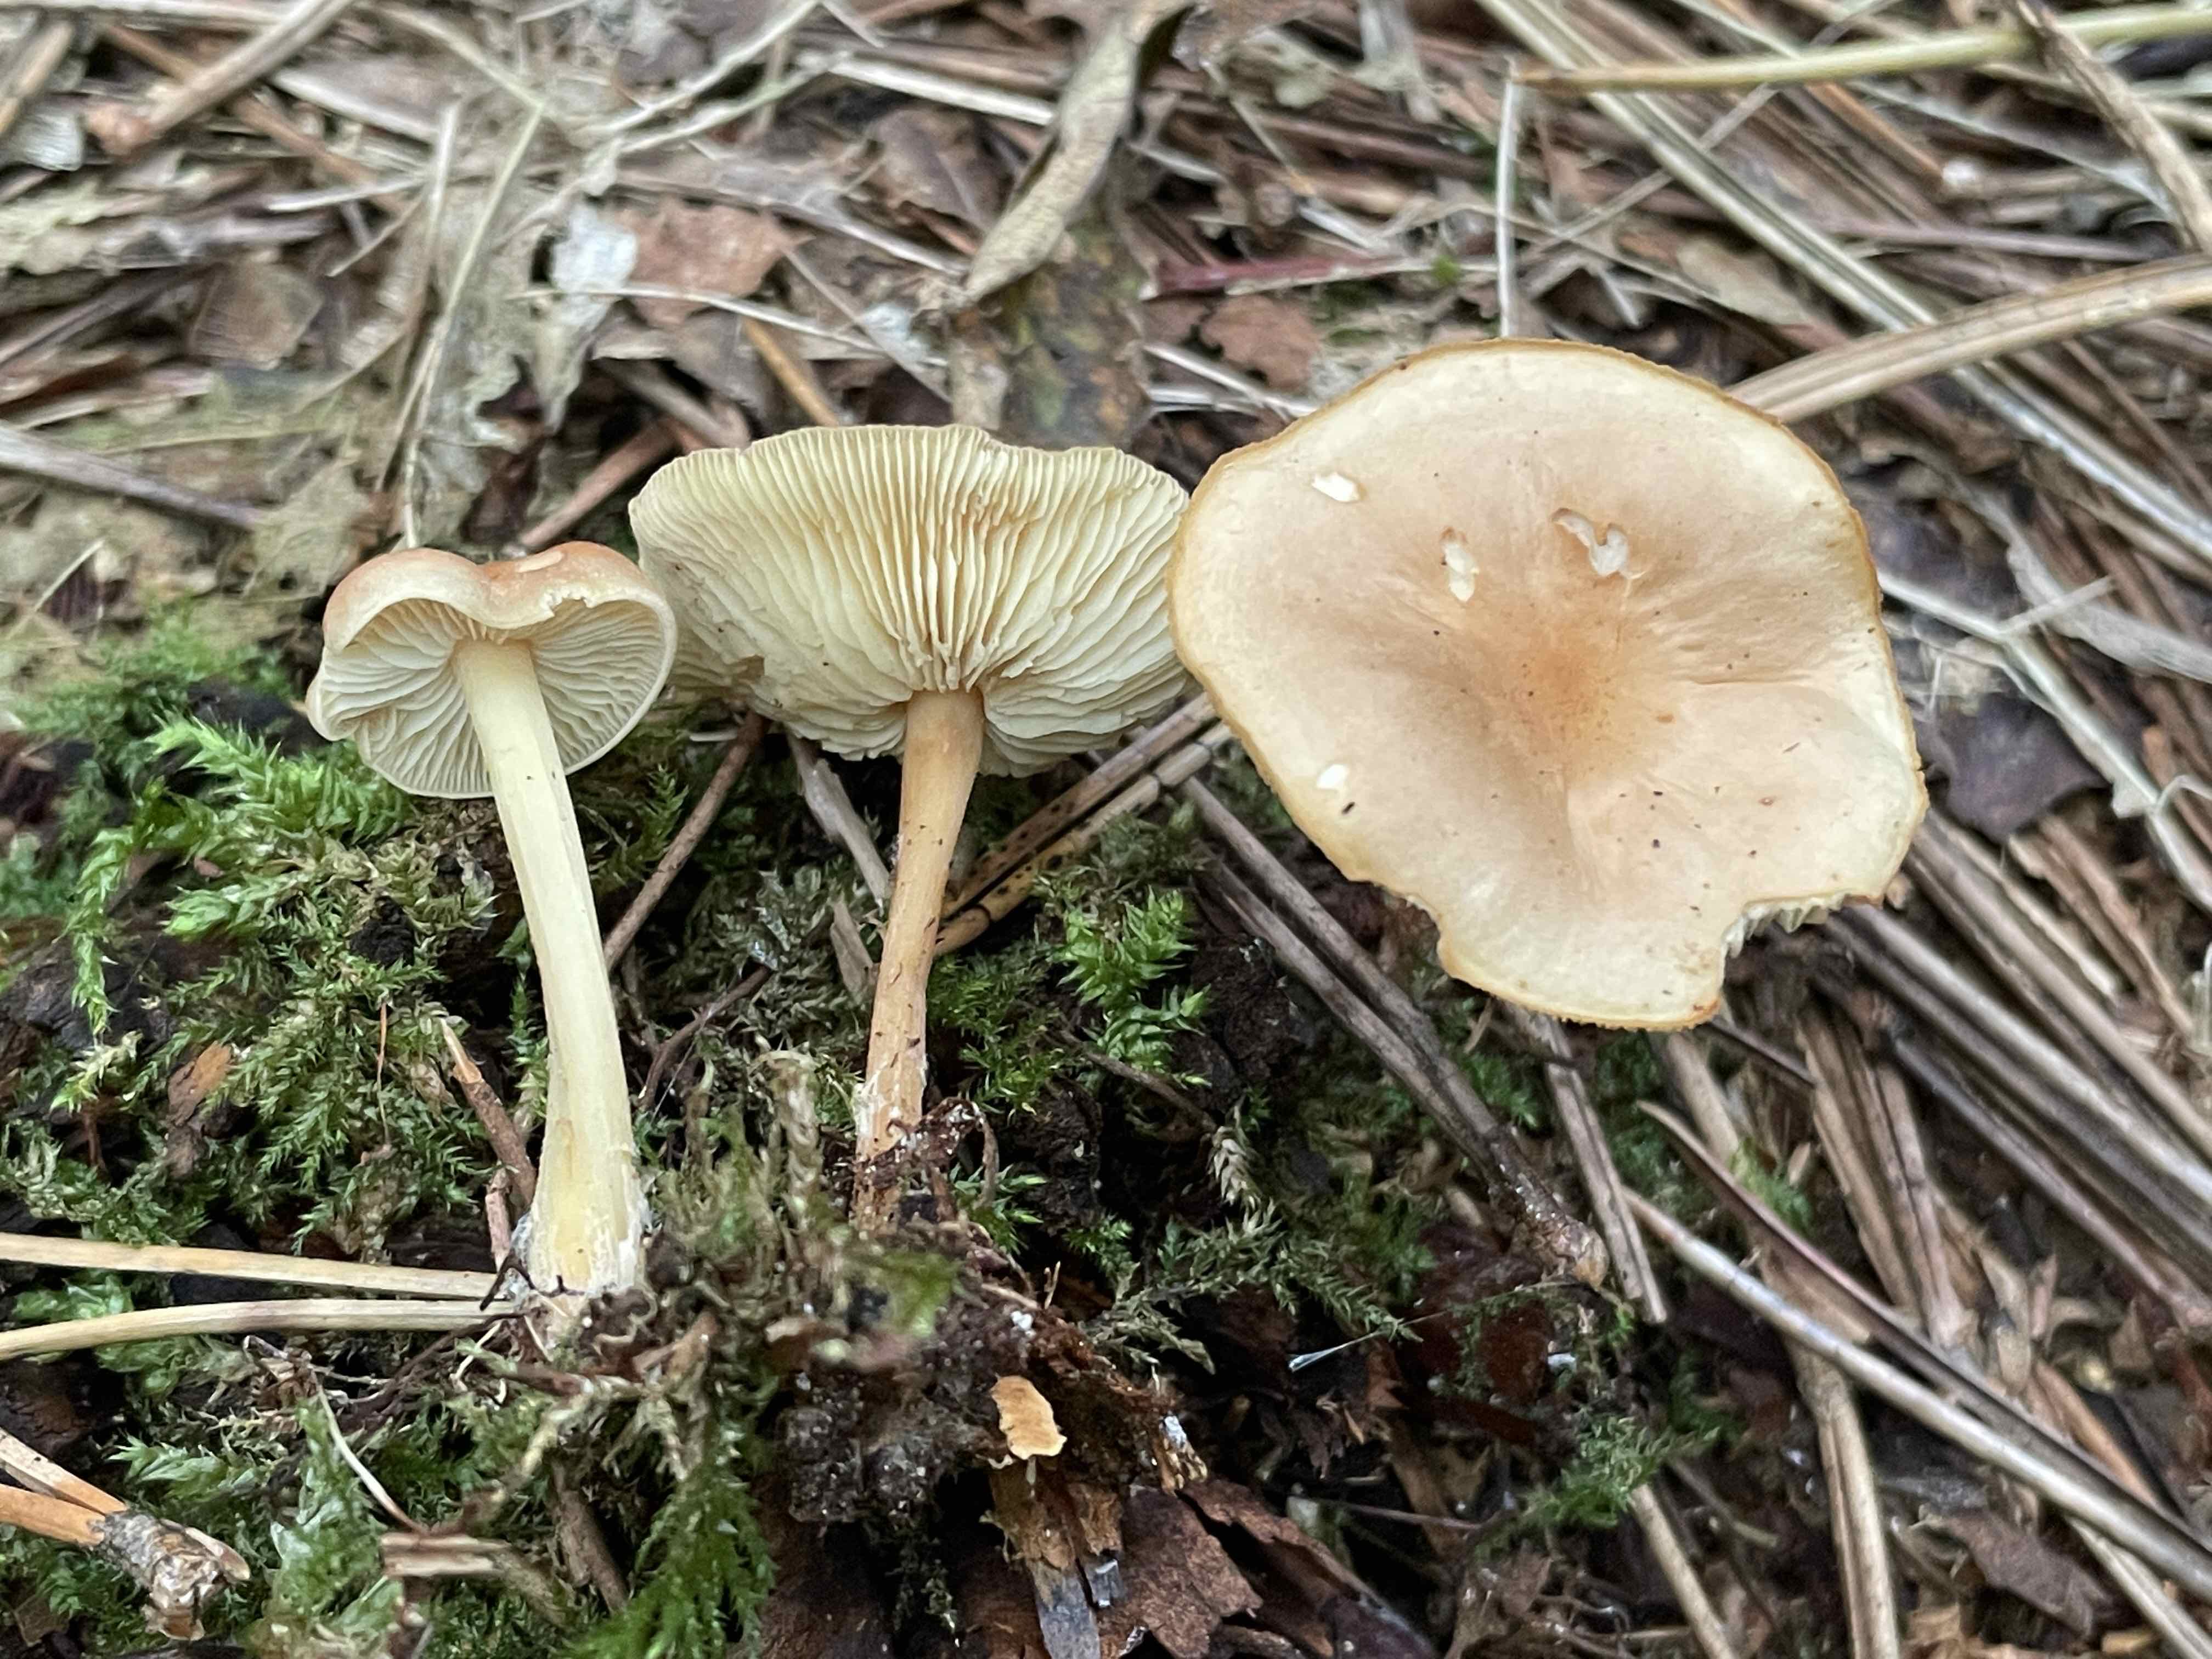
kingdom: Fungi
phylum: Basidiomycota
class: Agaricomycetes
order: Agaricales
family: Omphalotaceae
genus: Gymnopus
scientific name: Gymnopus ocior
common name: mørk fladhat
